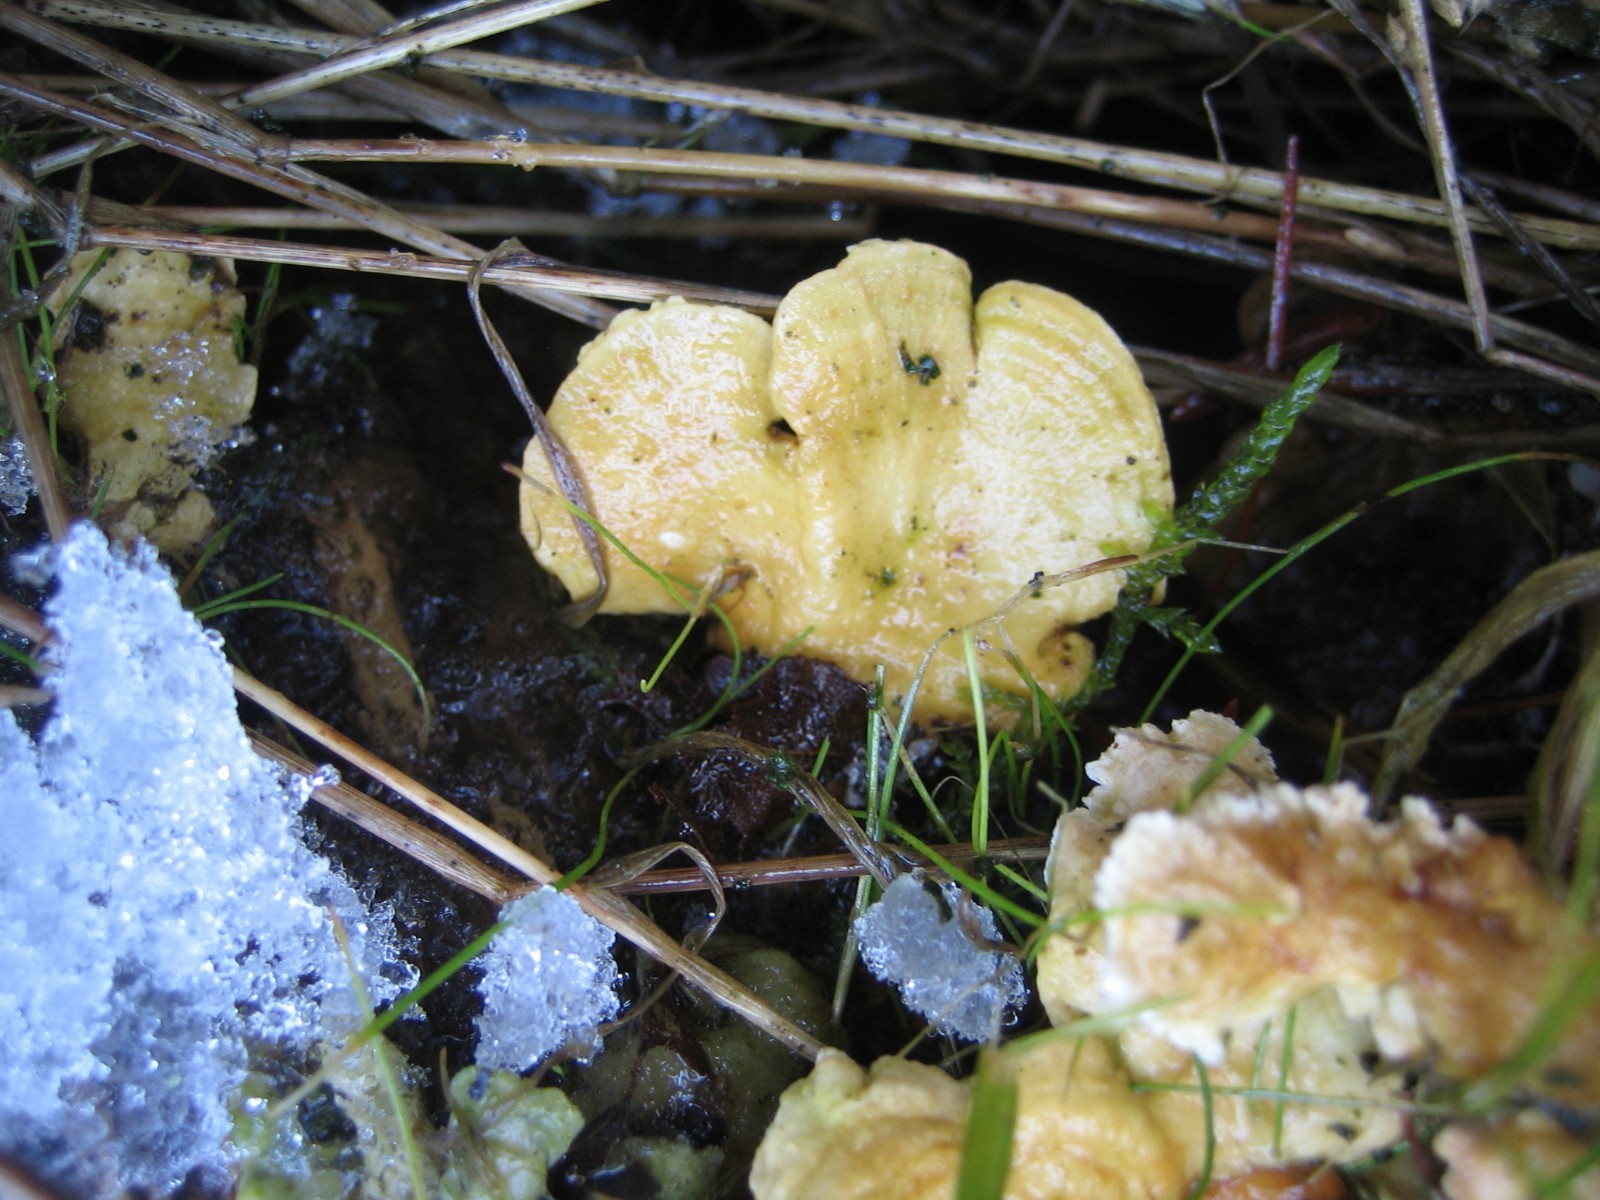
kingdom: Fungi
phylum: Basidiomycota
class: Agaricomycetes
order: Polyporales
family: Polyporaceae
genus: Trametes
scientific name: Trametes ochracea
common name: bæltet læderporesvamp
